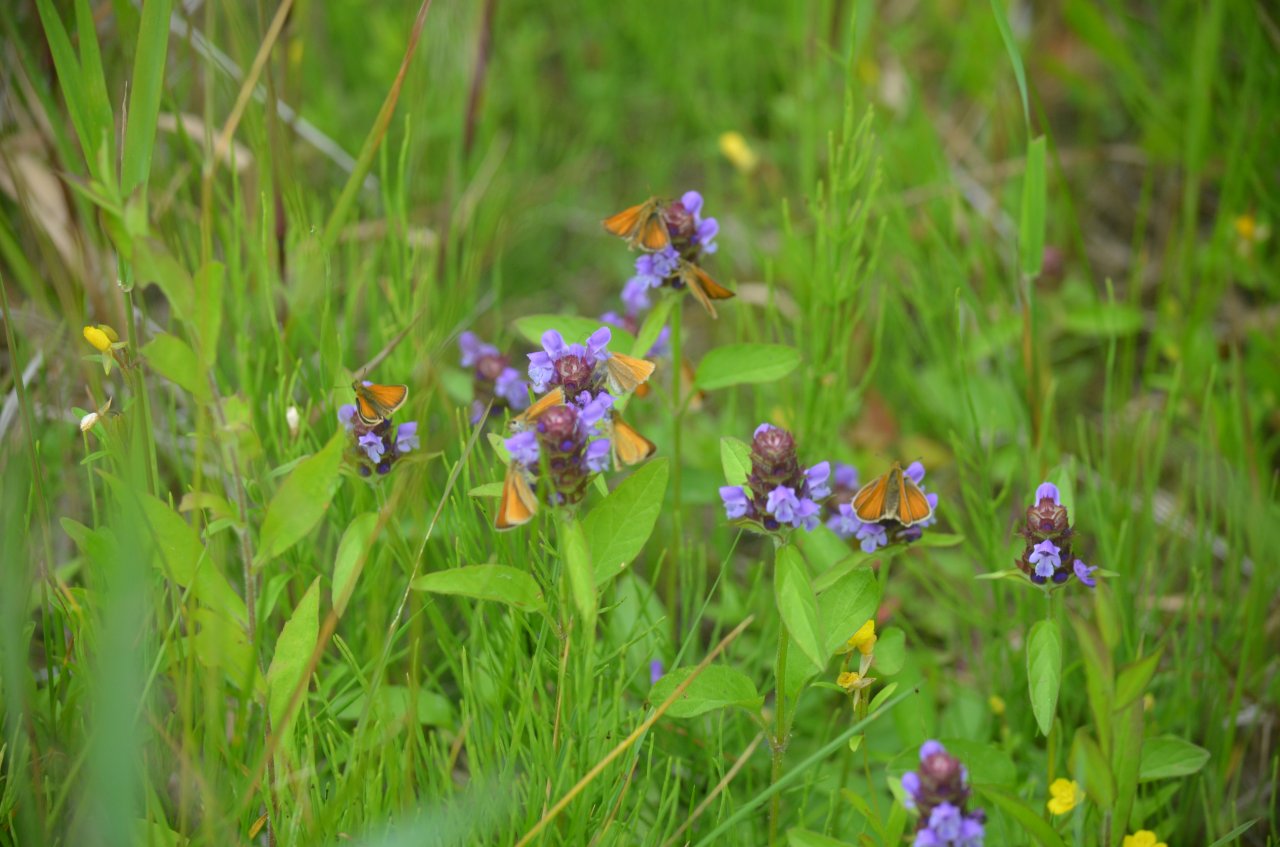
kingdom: Animalia
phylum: Arthropoda
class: Insecta
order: Lepidoptera
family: Hesperiidae
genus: Thymelicus
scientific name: Thymelicus lineola
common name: European Skipper
